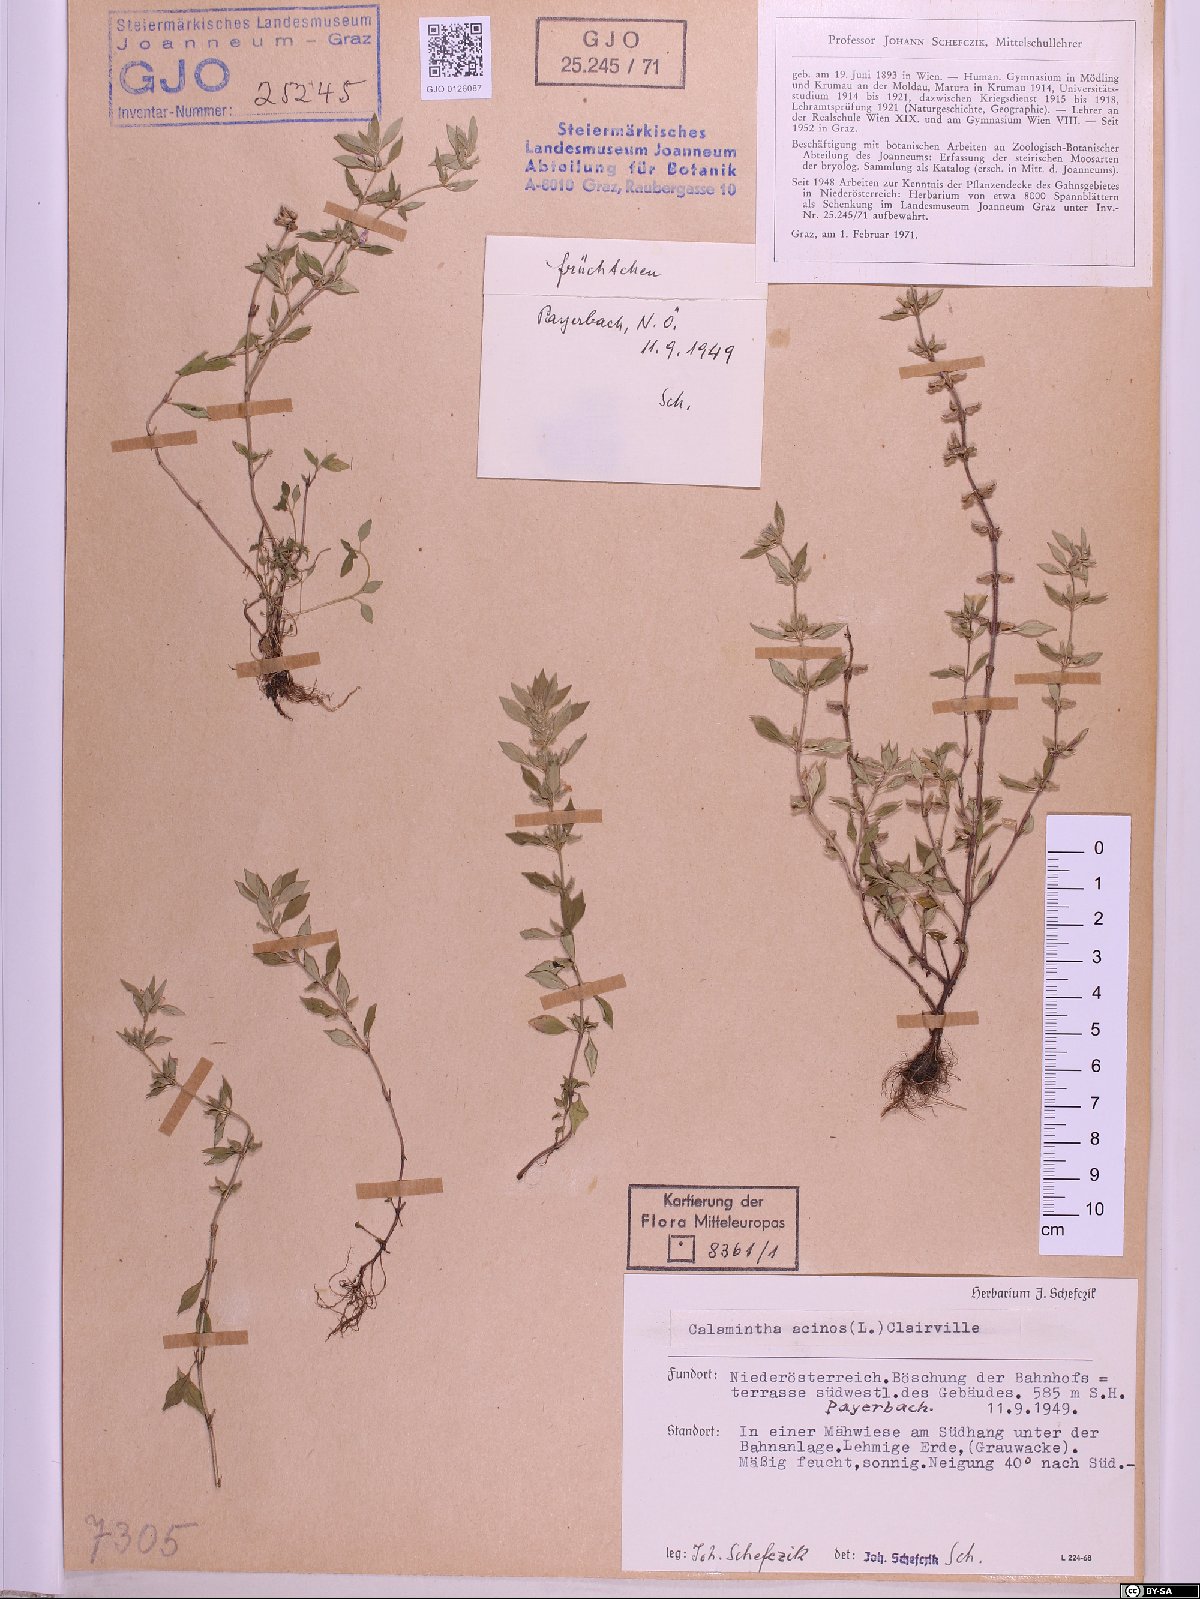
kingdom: Plantae
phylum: Tracheophyta
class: Magnoliopsida
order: Lamiales
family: Lamiaceae
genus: Clinopodium
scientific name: Clinopodium acinos
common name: Basil thyme
